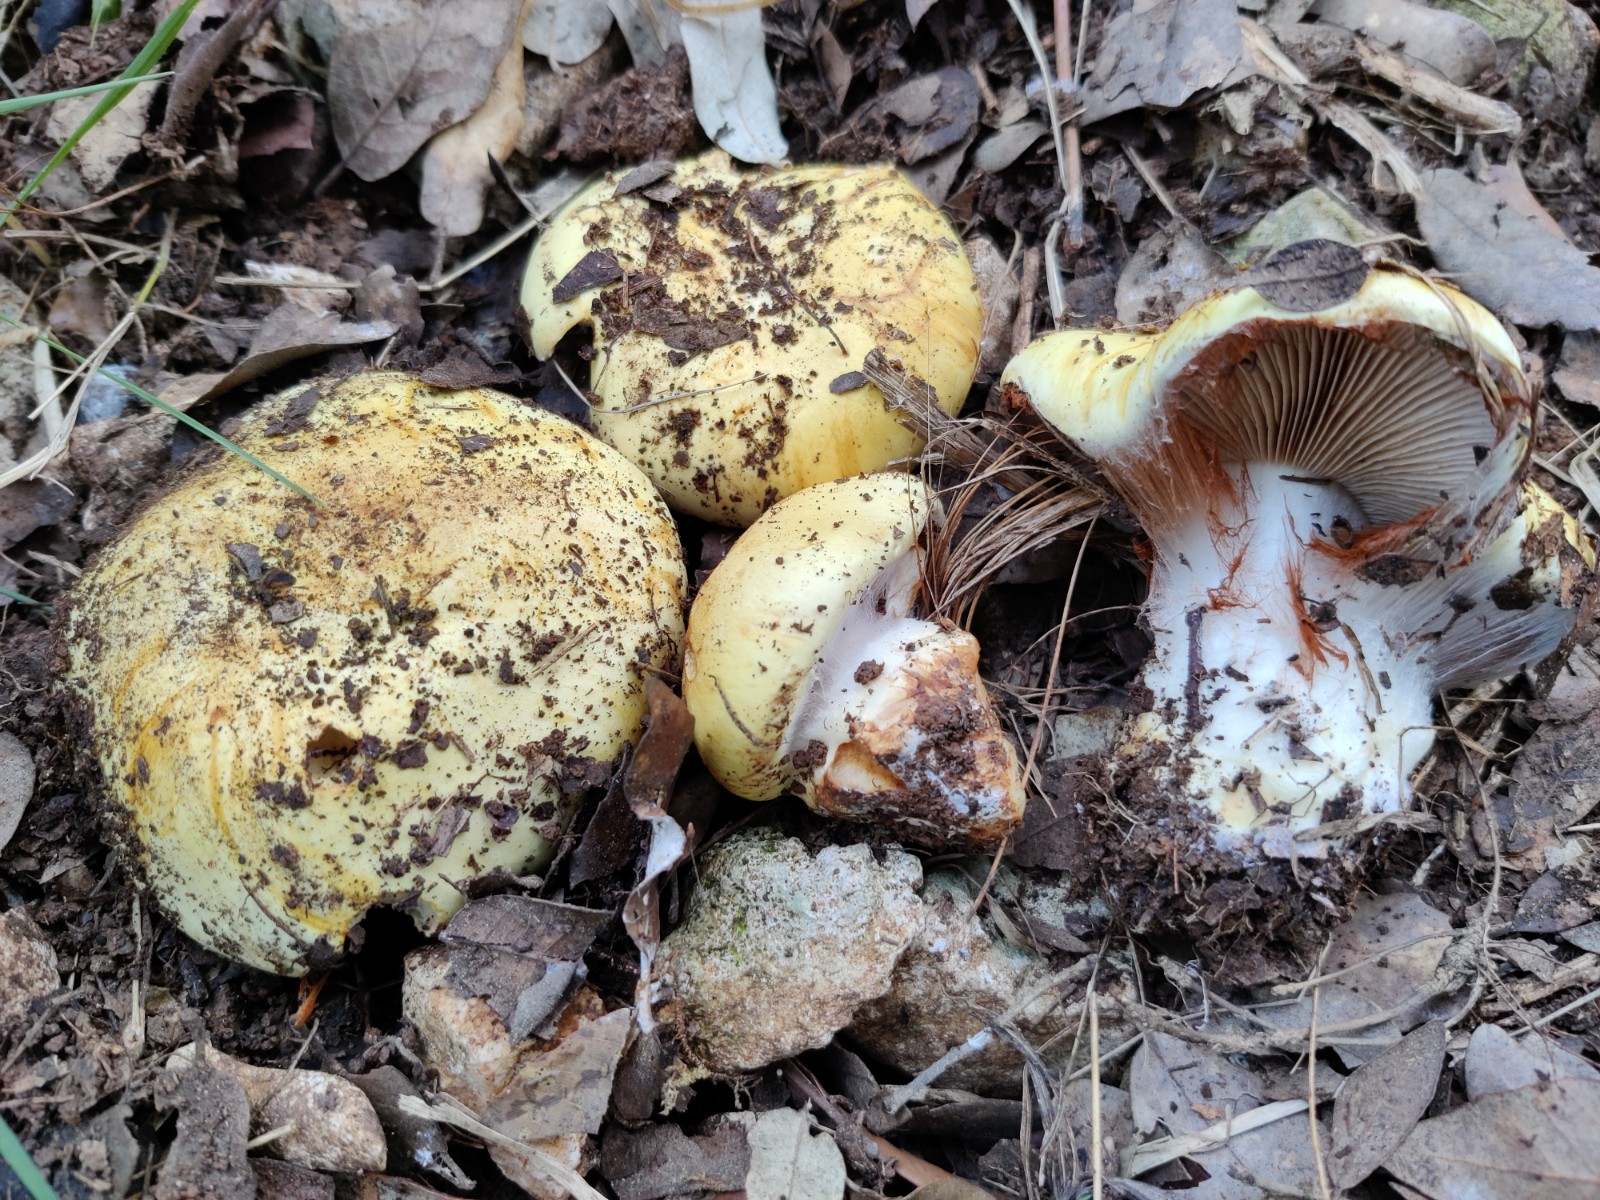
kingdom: Fungi
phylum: Basidiomycota
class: Agaricomycetes
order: Agaricales
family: Cortinariaceae
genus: Phlegmacium
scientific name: Phlegmacium caesiocortinatum
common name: rundsporet slørhat
